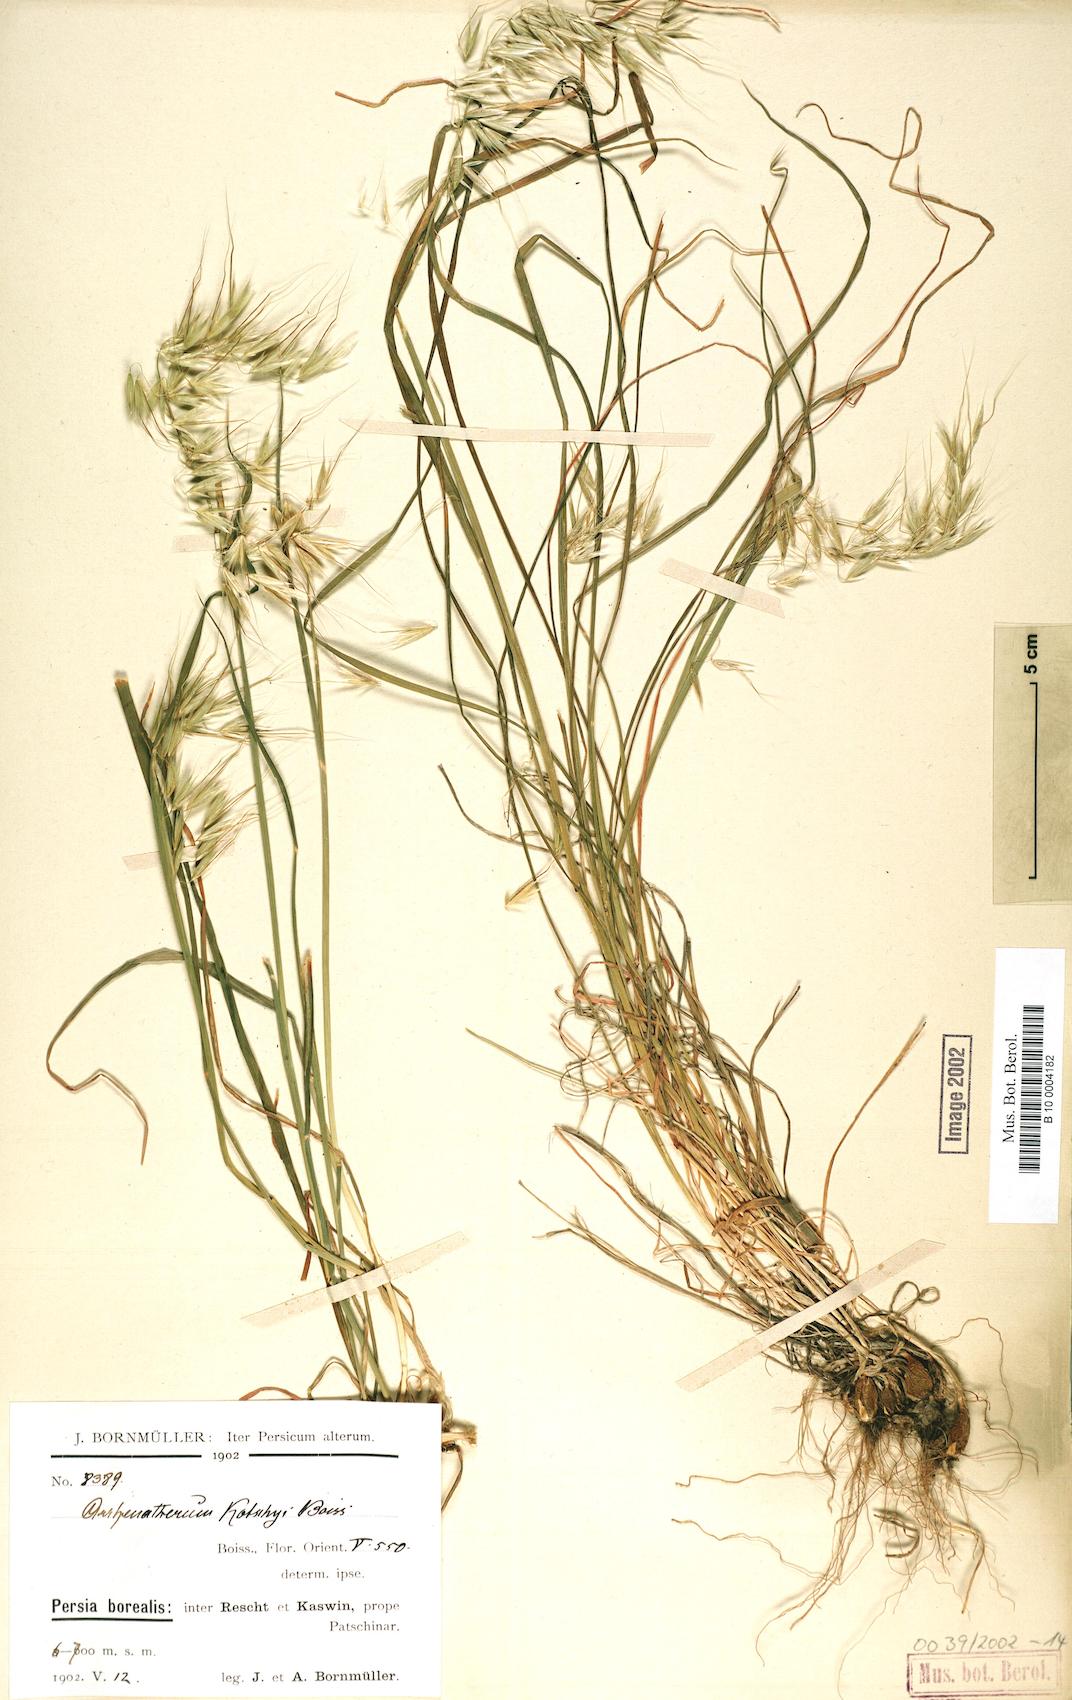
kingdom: Plantae
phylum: Tracheophyta
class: Liliopsida
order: Poales
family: Poaceae
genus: Arrhenatherum
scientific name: Arrhenatherum kotschyi
